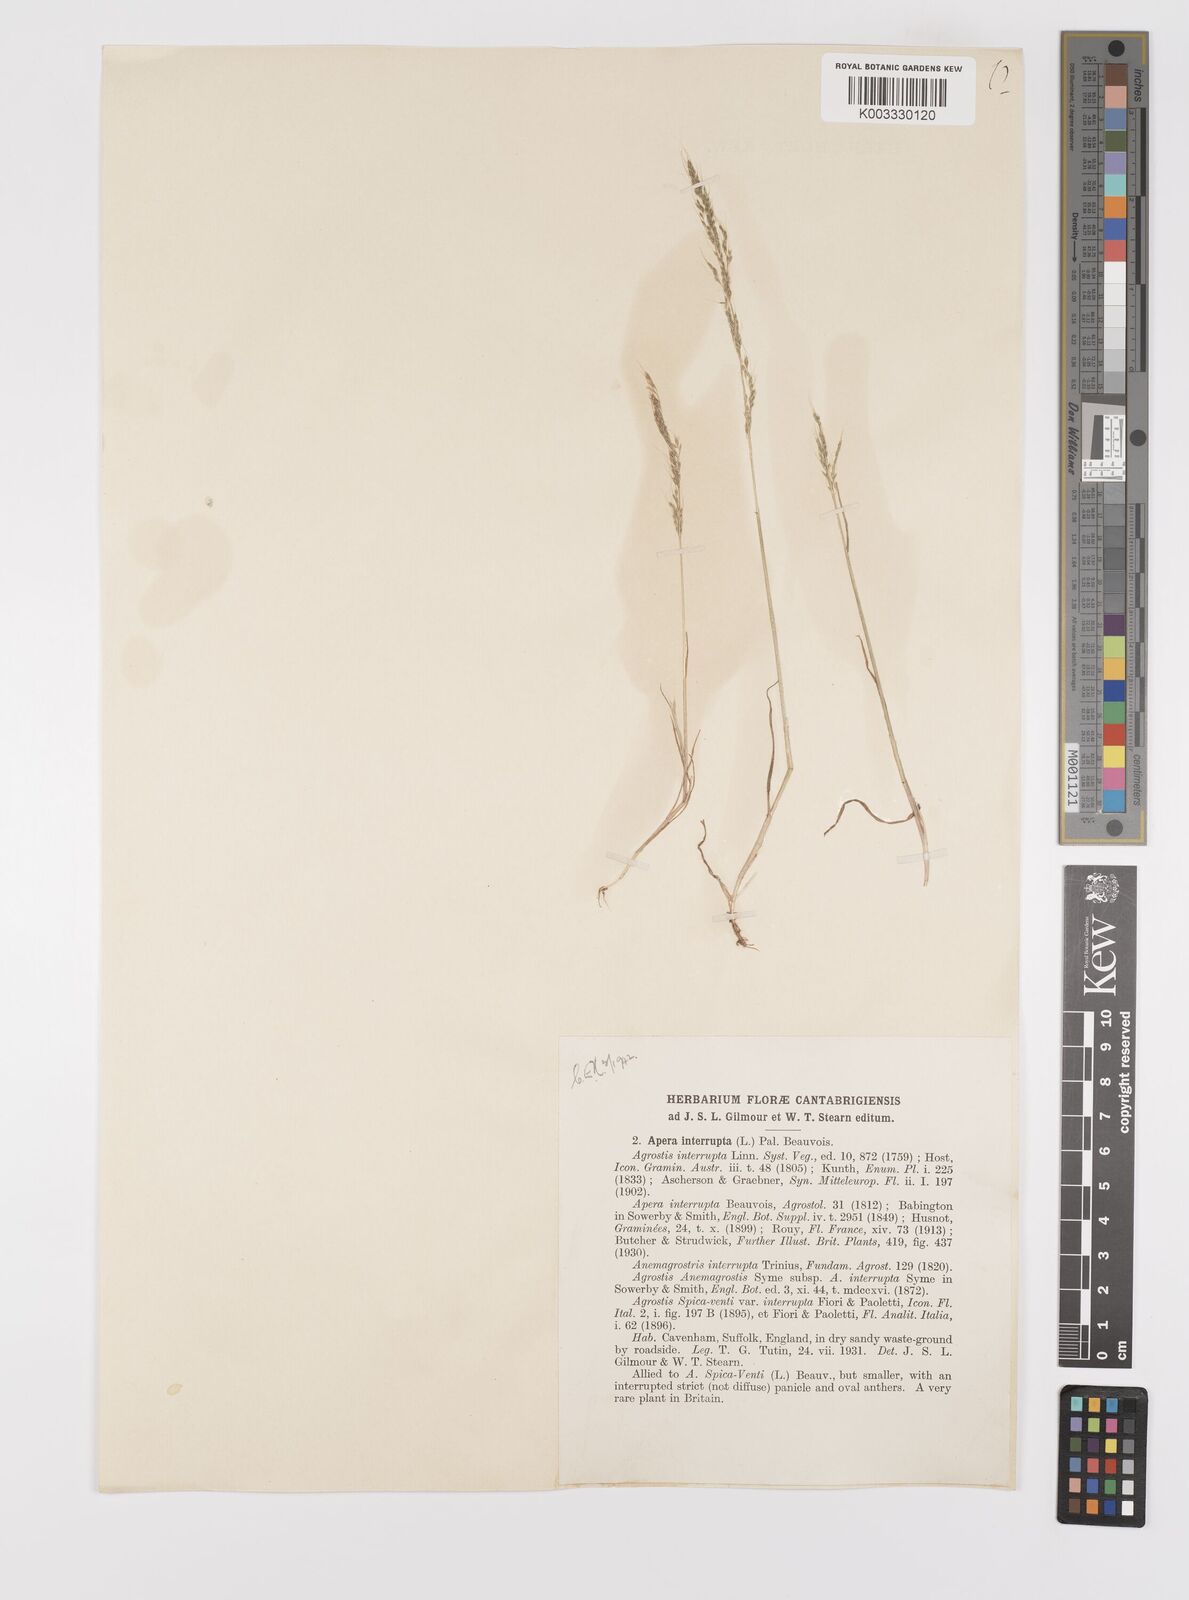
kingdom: Plantae
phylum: Tracheophyta
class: Liliopsida
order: Poales
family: Poaceae
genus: Apera
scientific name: Apera interrupta
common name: Dense silky-bent
